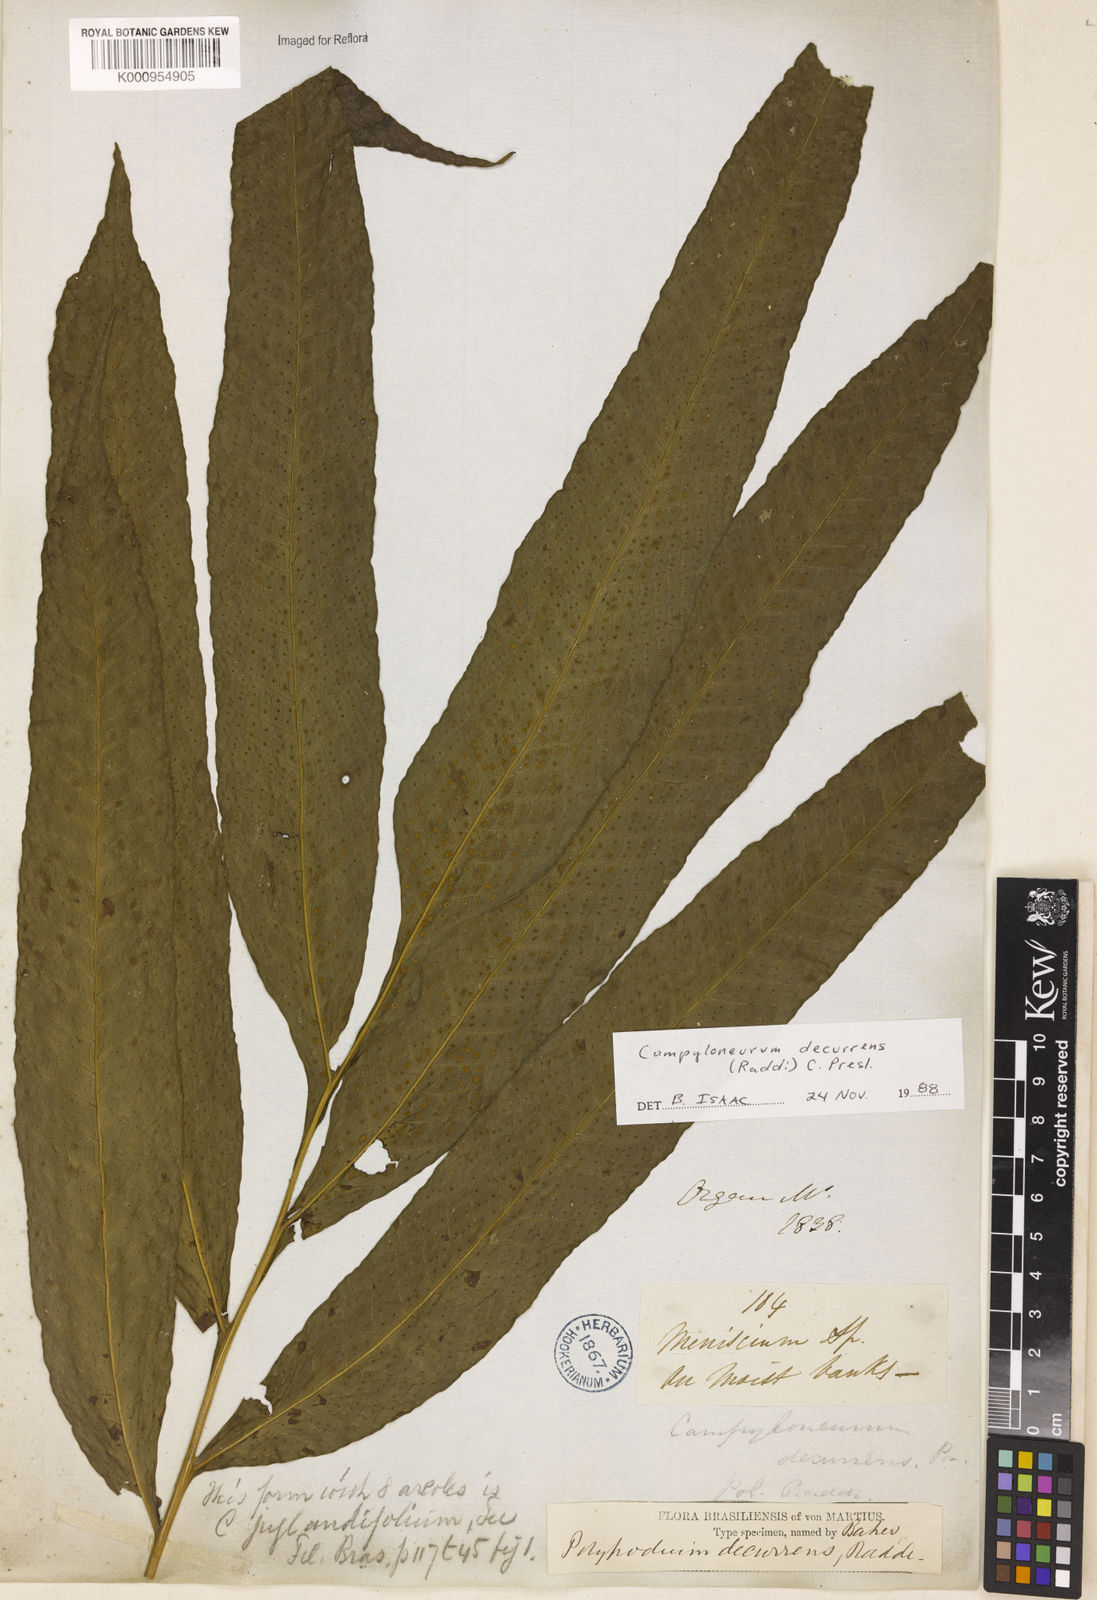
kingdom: Plantae
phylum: Tracheophyta
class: Polypodiopsida
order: Polypodiales
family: Polypodiaceae
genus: Campyloneurum
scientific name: Campyloneurum decurrens
